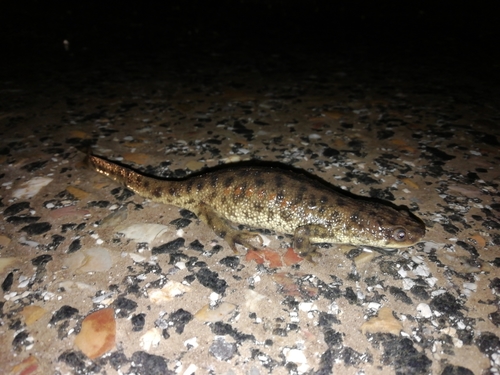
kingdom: Animalia
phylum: Chordata
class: Amphibia
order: Caudata
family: Salamandridae
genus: Pleurodeles
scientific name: Pleurodeles waltl
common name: Iberian ribbed newt
